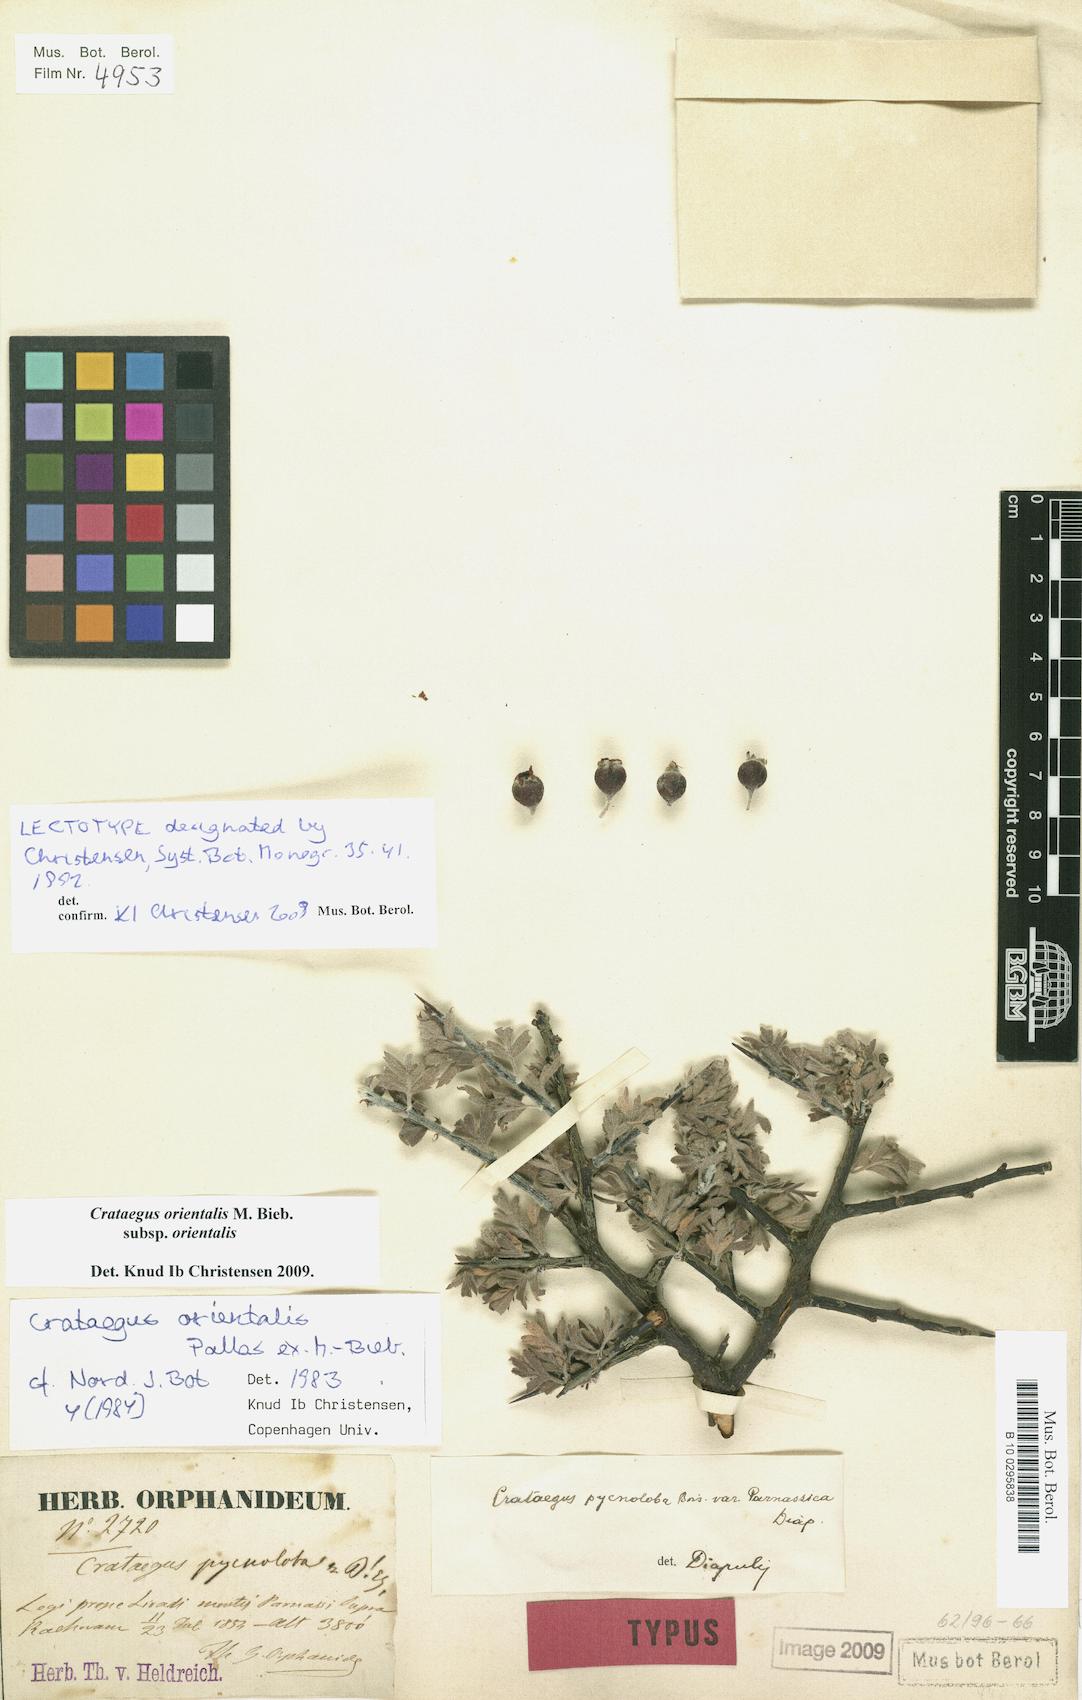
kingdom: Plantae
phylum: Tracheophyta
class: Magnoliopsida
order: Rosales
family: Rosaceae
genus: Crataegus
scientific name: Crataegus orientalis
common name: Oriental hawthorn
